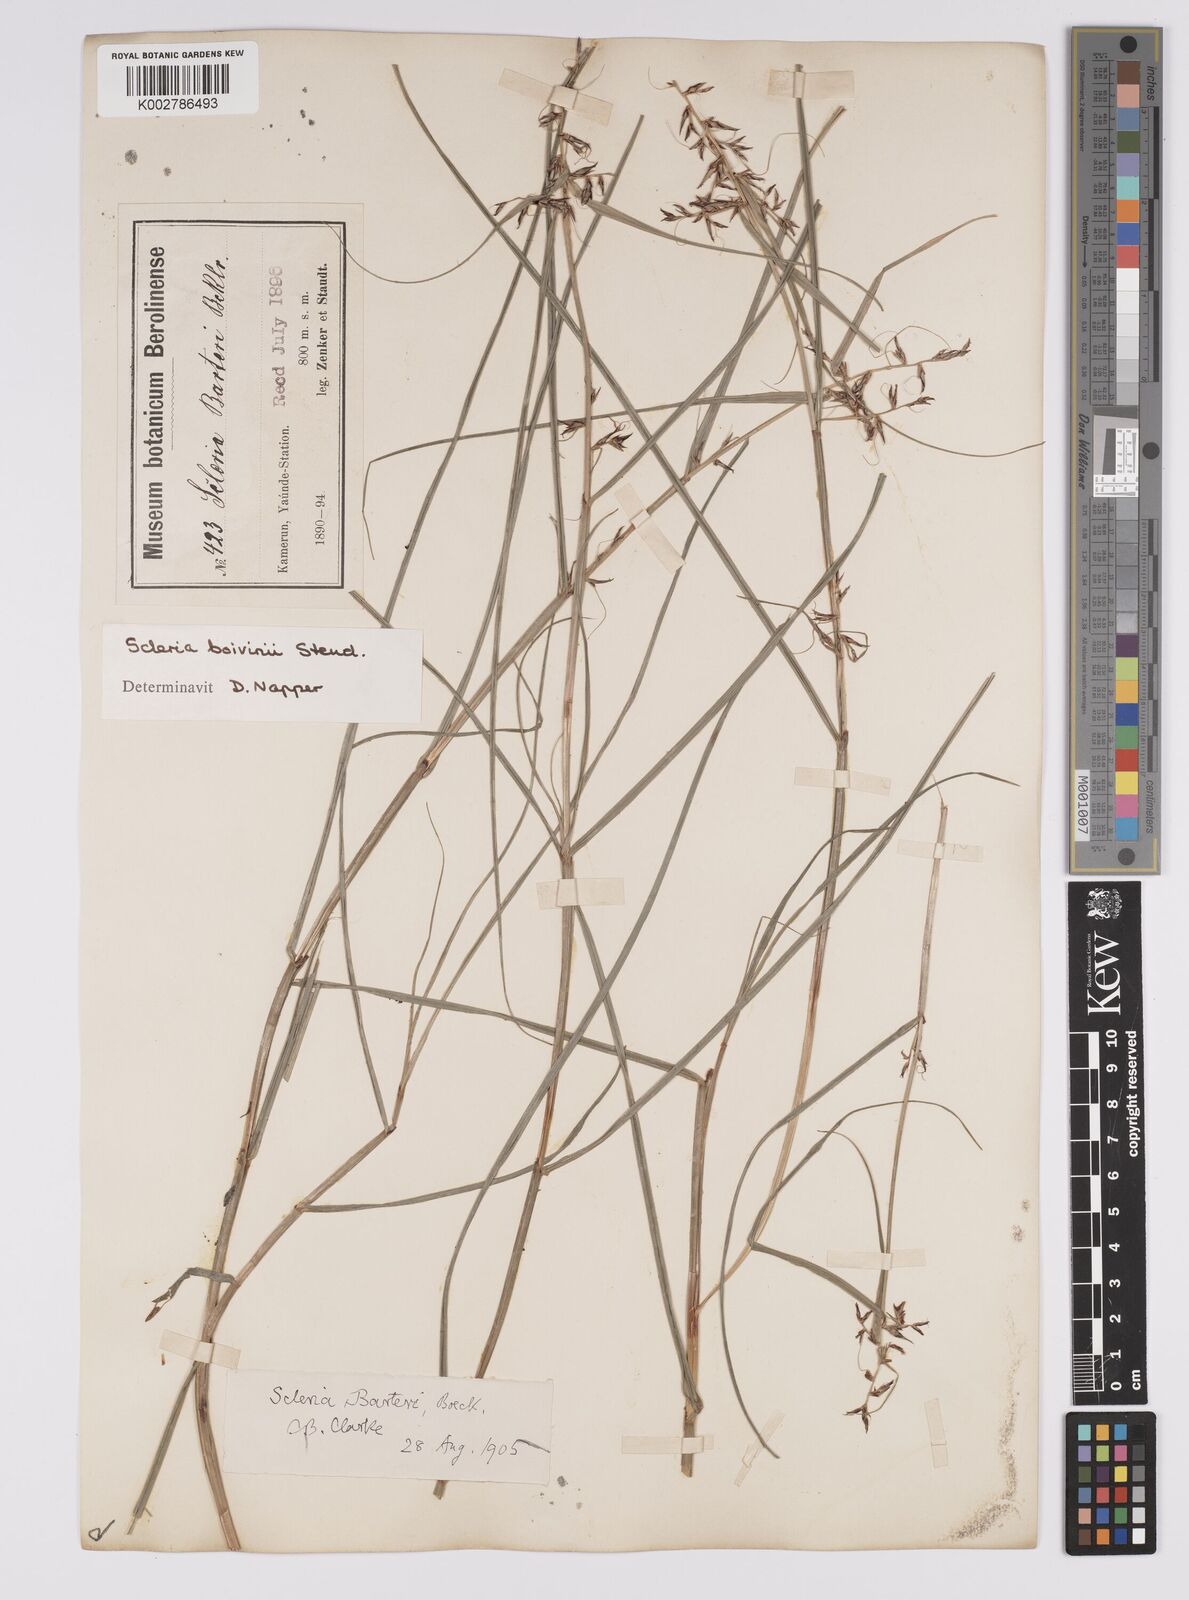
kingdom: Plantae
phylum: Tracheophyta
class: Liliopsida
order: Poales
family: Cyperaceae
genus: Scleria
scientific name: Scleria boivinii
